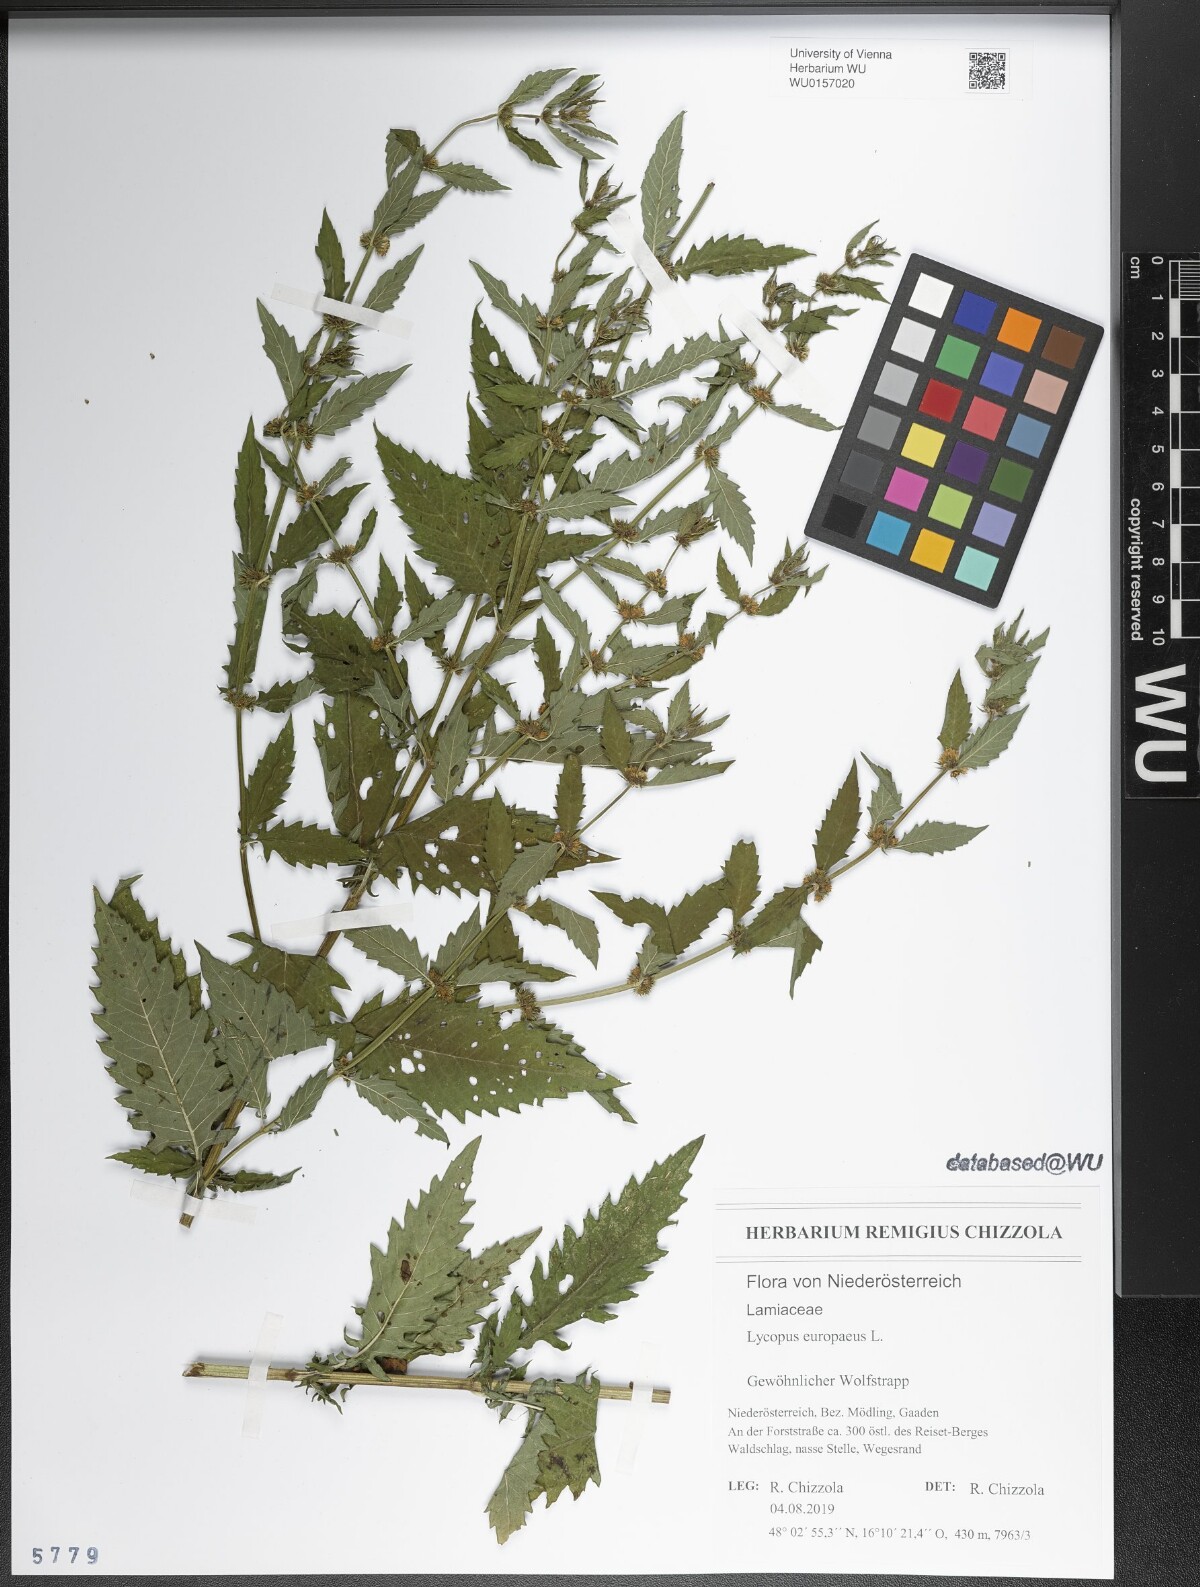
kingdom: Plantae
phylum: Tracheophyta
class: Magnoliopsida
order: Lamiales
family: Lamiaceae
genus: Lycopus
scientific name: Lycopus europaeus
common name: European bugleweed
